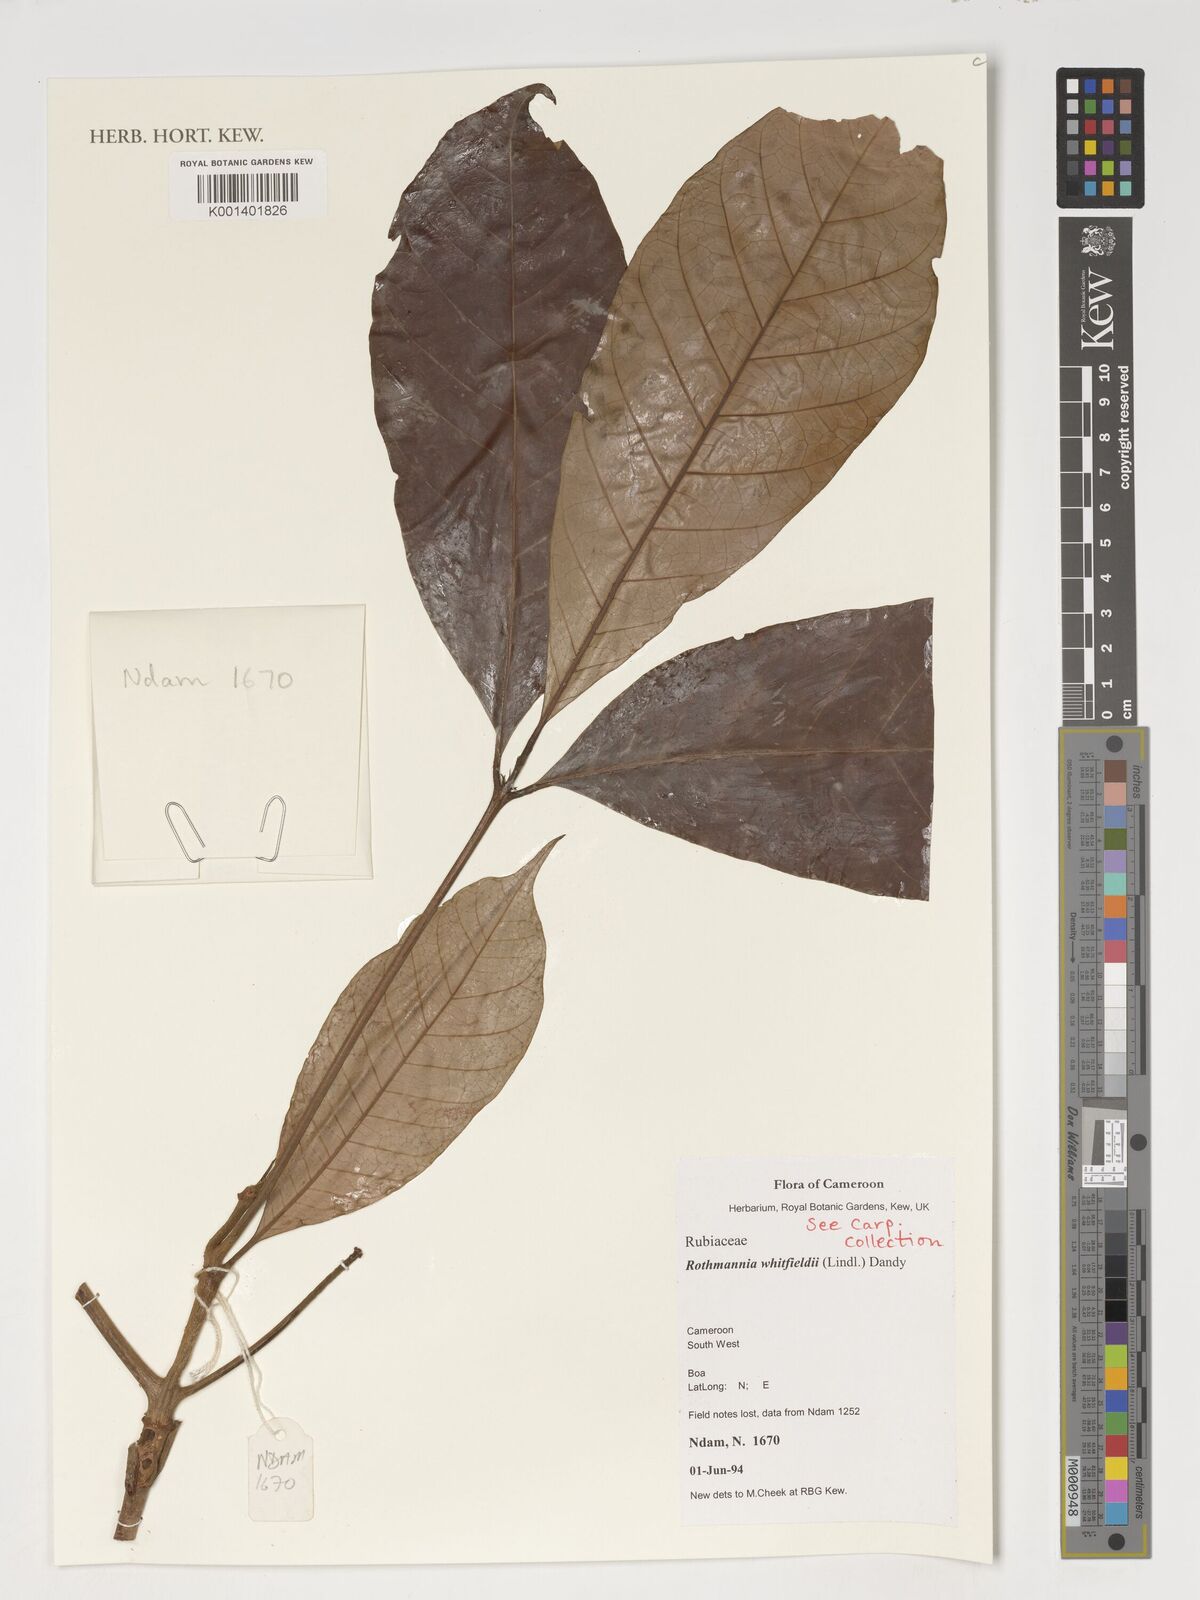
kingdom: Plantae
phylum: Tracheophyta
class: Magnoliopsida
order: Gentianales
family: Rubiaceae
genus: Rothmannia
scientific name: Rothmannia whitfieldii
